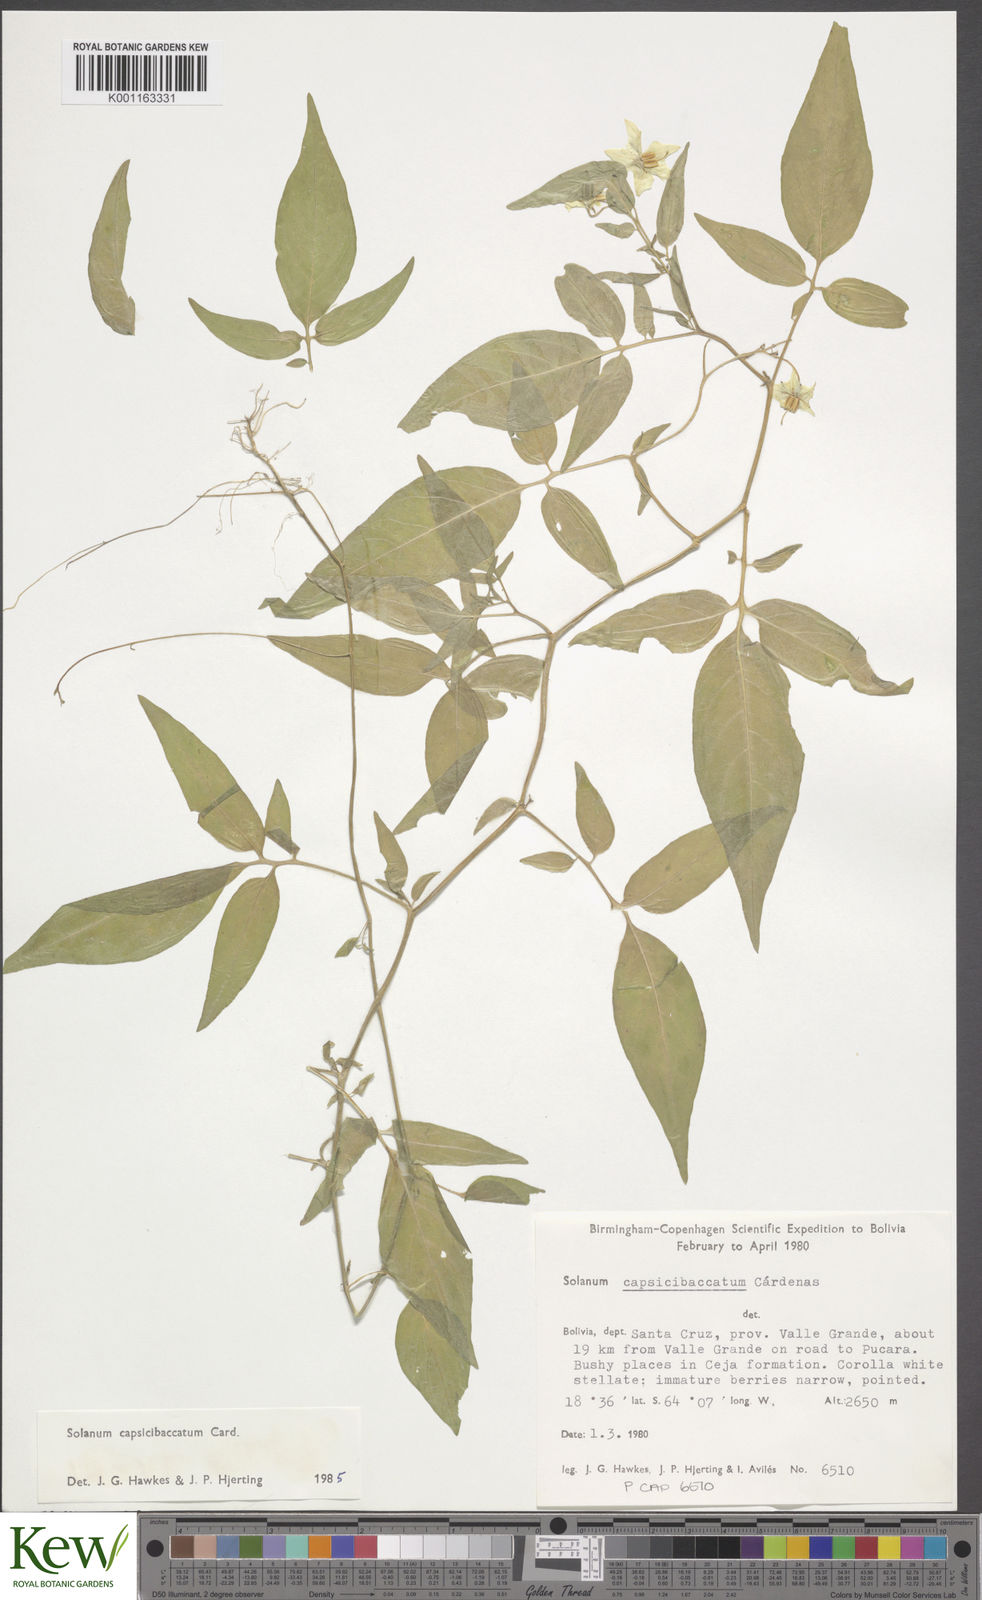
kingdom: Plantae
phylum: Tracheophyta
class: Magnoliopsida
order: Solanales
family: Solanaceae
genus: Solanum
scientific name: Solanum stipuloideum
